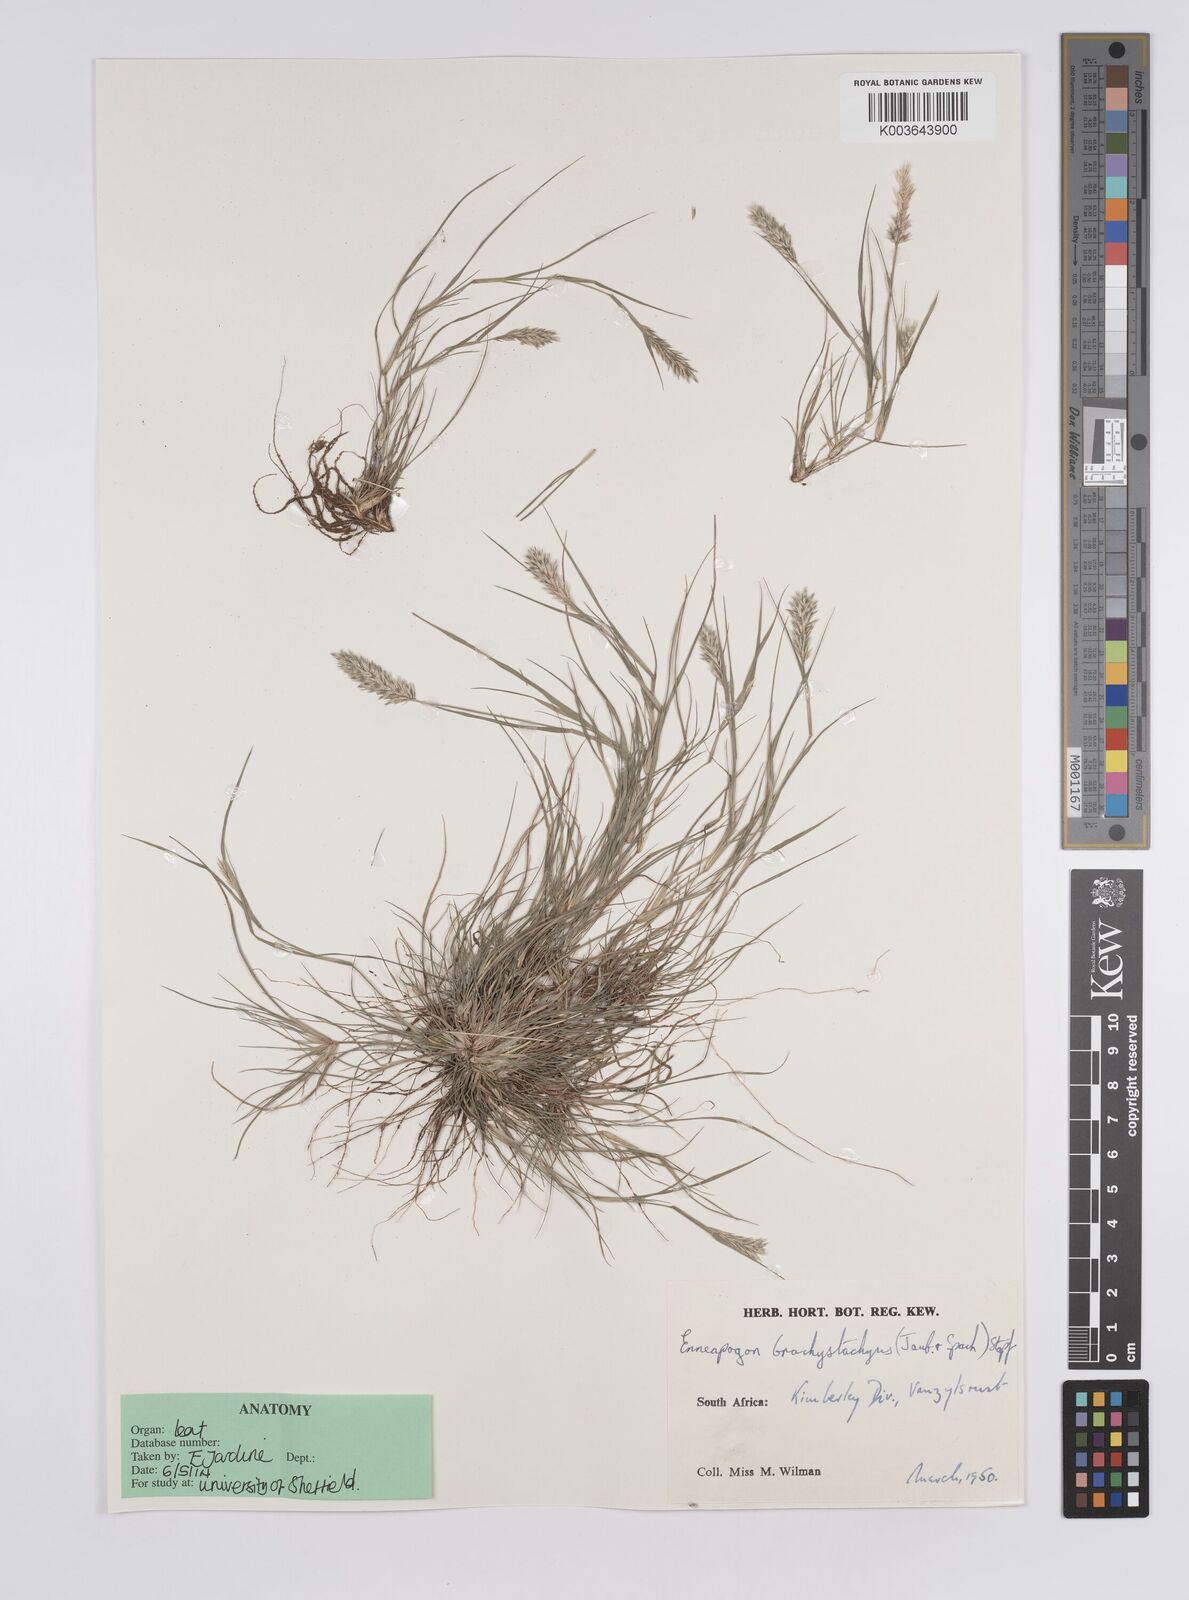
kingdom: Plantae
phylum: Tracheophyta
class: Liliopsida
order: Poales
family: Poaceae
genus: Enneapogon
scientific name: Enneapogon desvauxii
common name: Feather pappus grass
